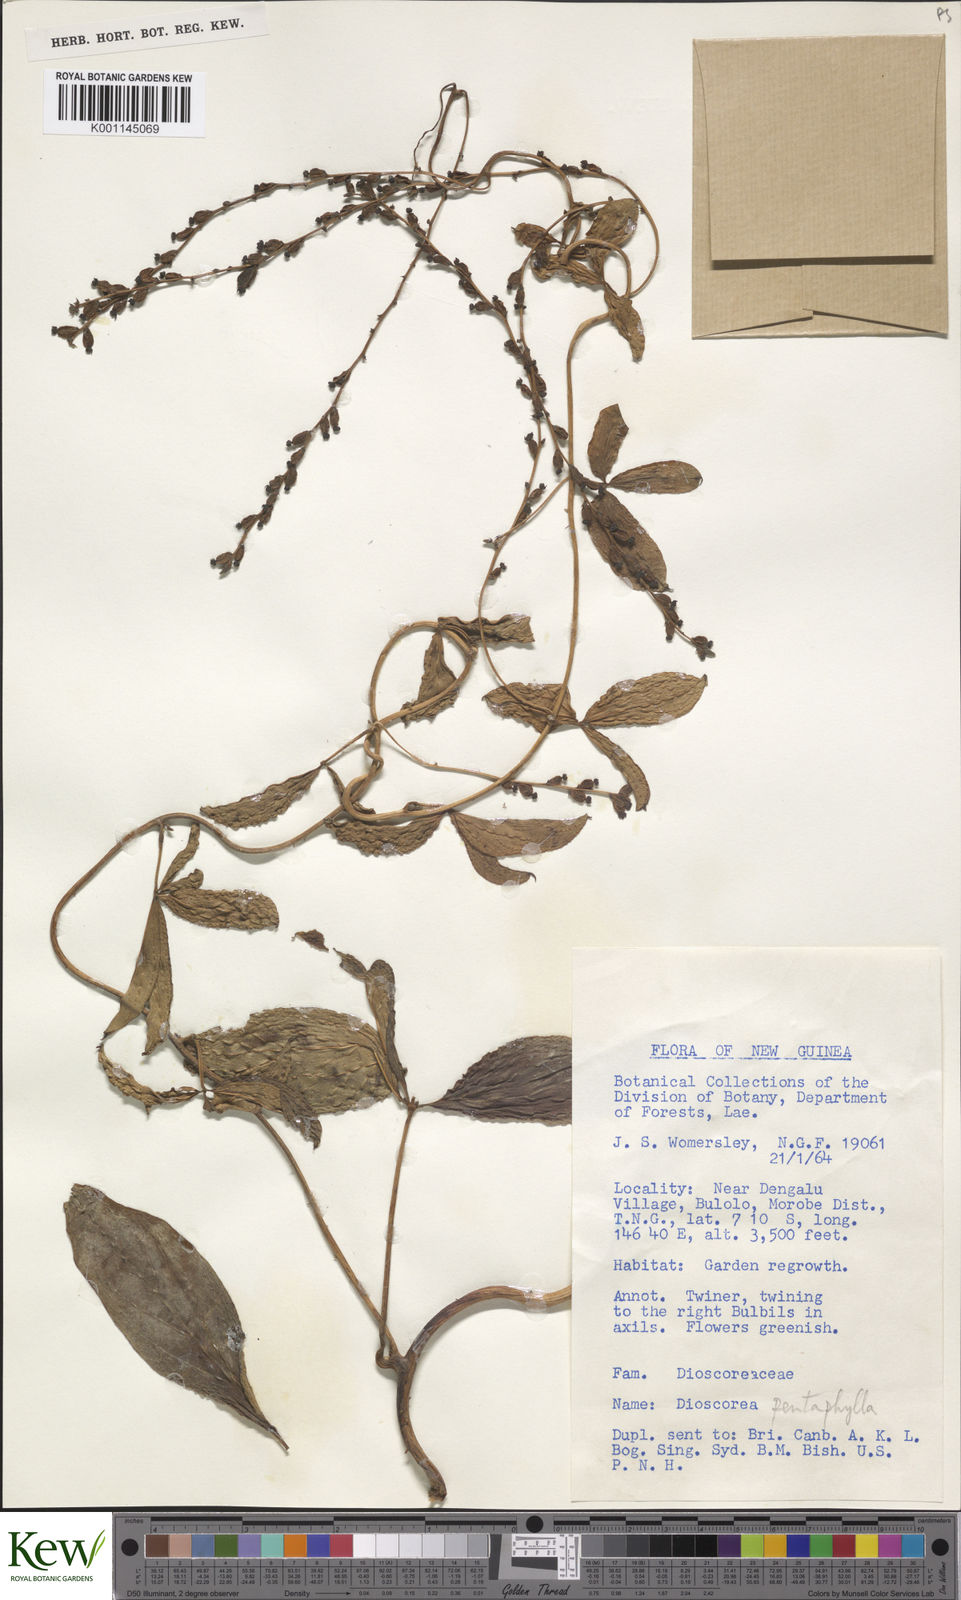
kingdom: Plantae
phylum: Tracheophyta
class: Liliopsida
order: Dioscoreales
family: Dioscoreaceae
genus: Dioscorea
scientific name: Dioscorea
